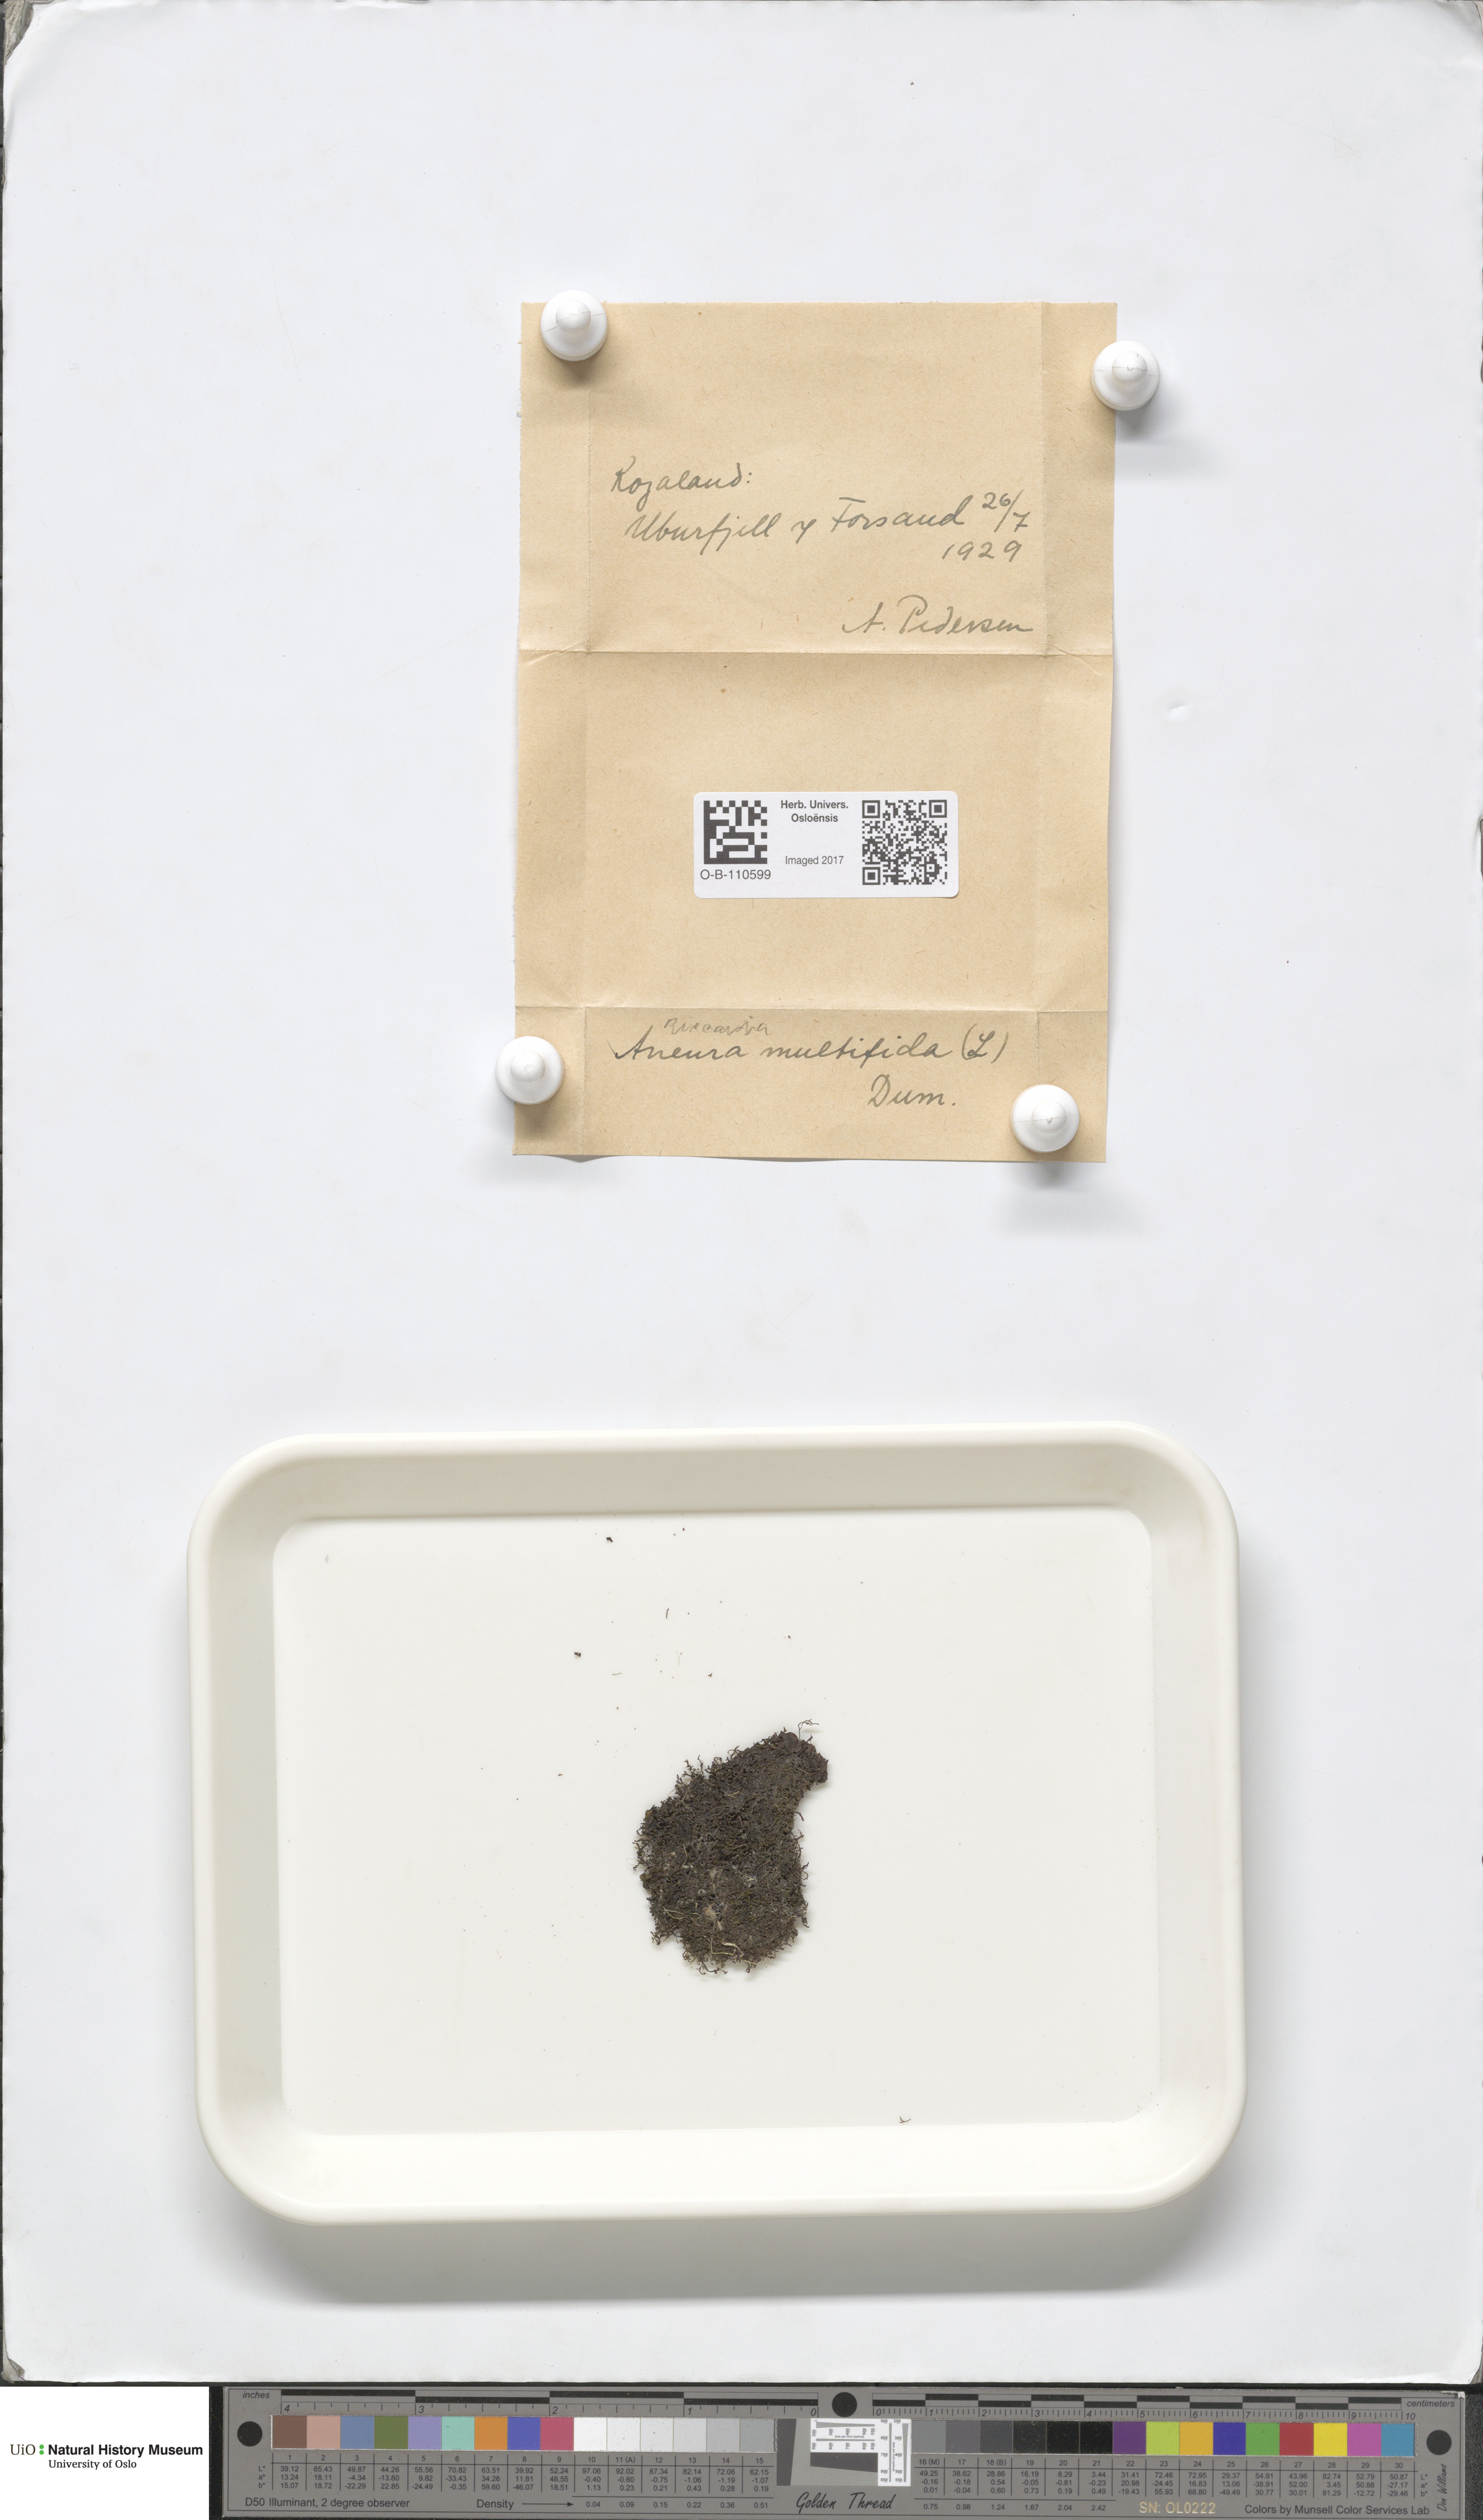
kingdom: Plantae
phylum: Marchantiophyta
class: Jungermanniopsida
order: Metzgeriales
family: Aneuraceae
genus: Riccardia
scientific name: Riccardia multifida
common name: Delicate germanderwort
